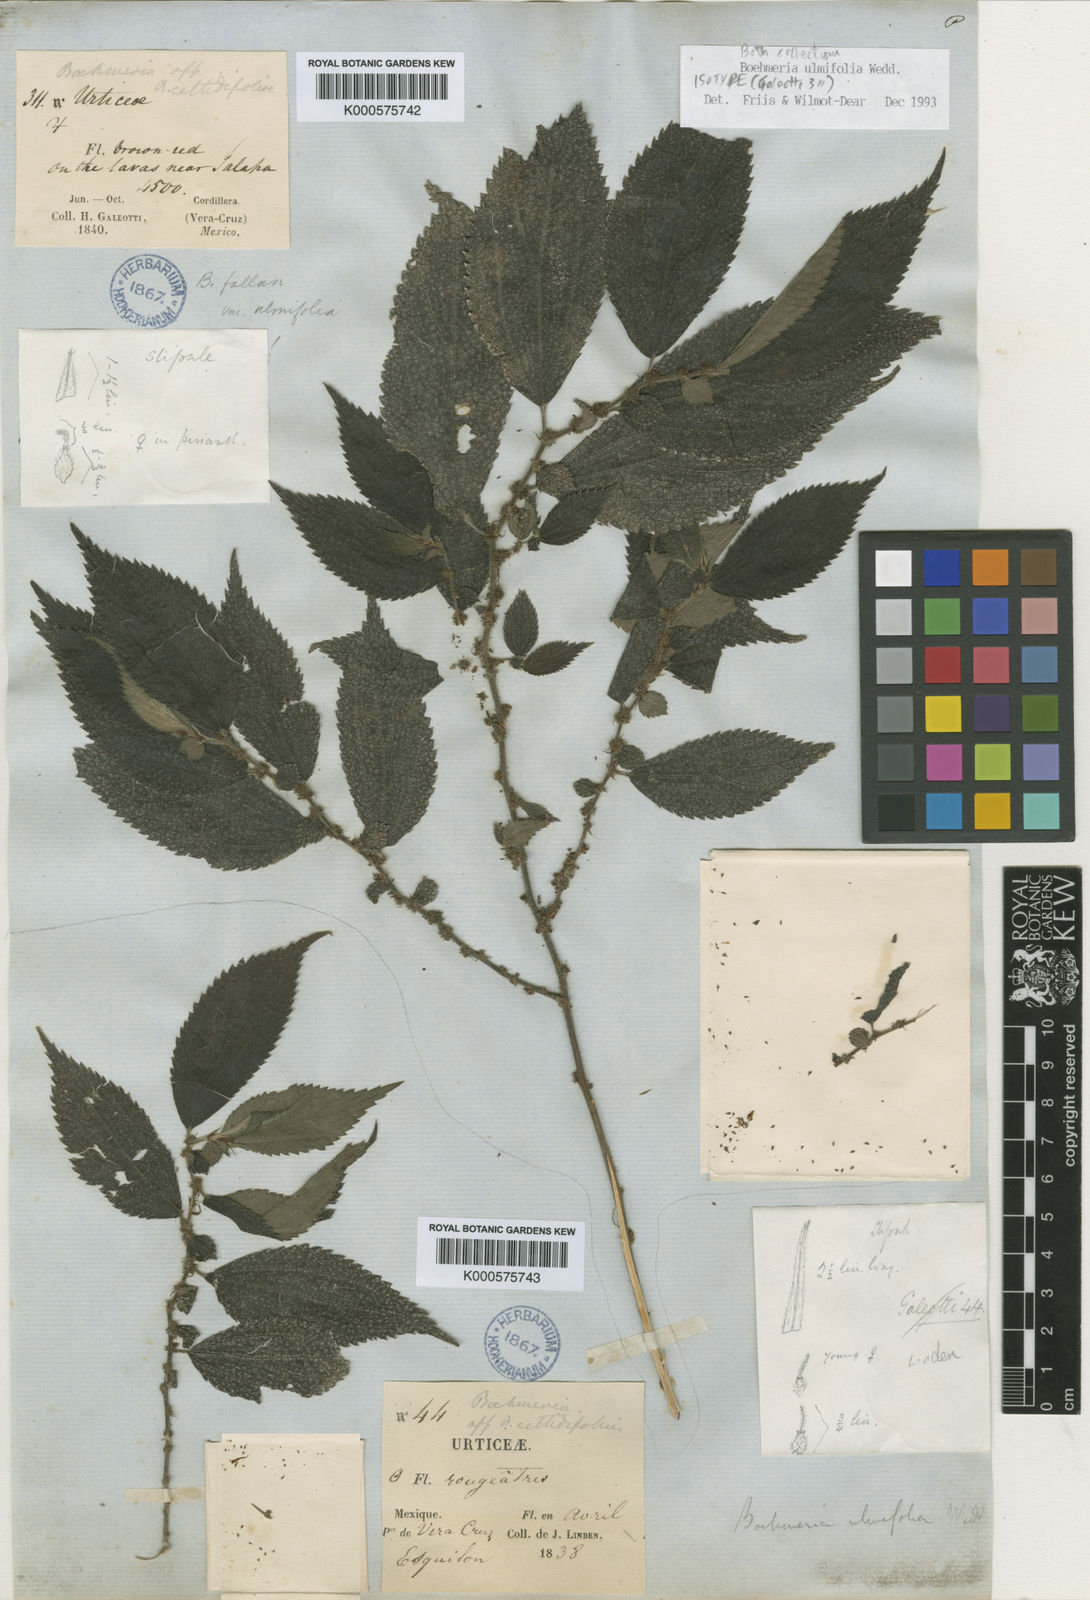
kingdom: Plantae
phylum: Tracheophyta
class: Magnoliopsida
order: Rosales
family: Urticaceae
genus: Boehmeria
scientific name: Boehmeria ulmifolia
